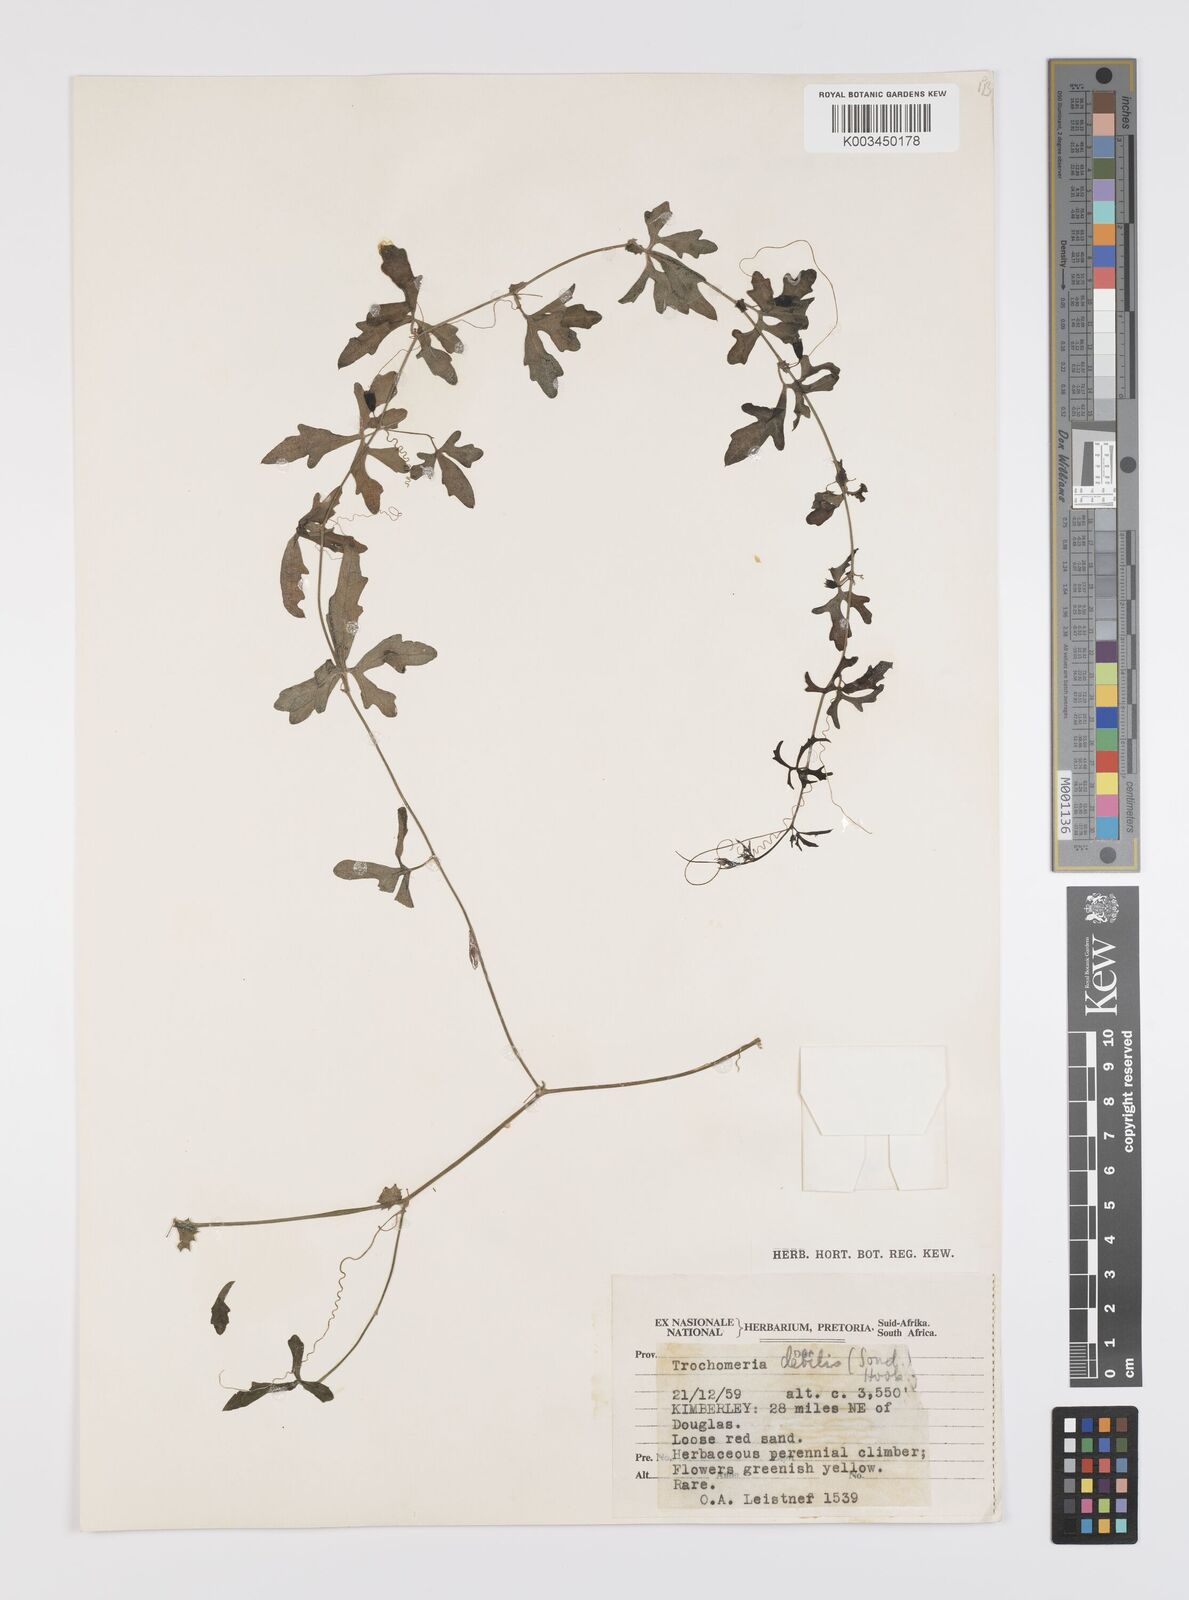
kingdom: Plantae
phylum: Tracheophyta
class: Magnoliopsida
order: Cucurbitales
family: Cucurbitaceae
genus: Trochomeria
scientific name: Trochomeria debilis
